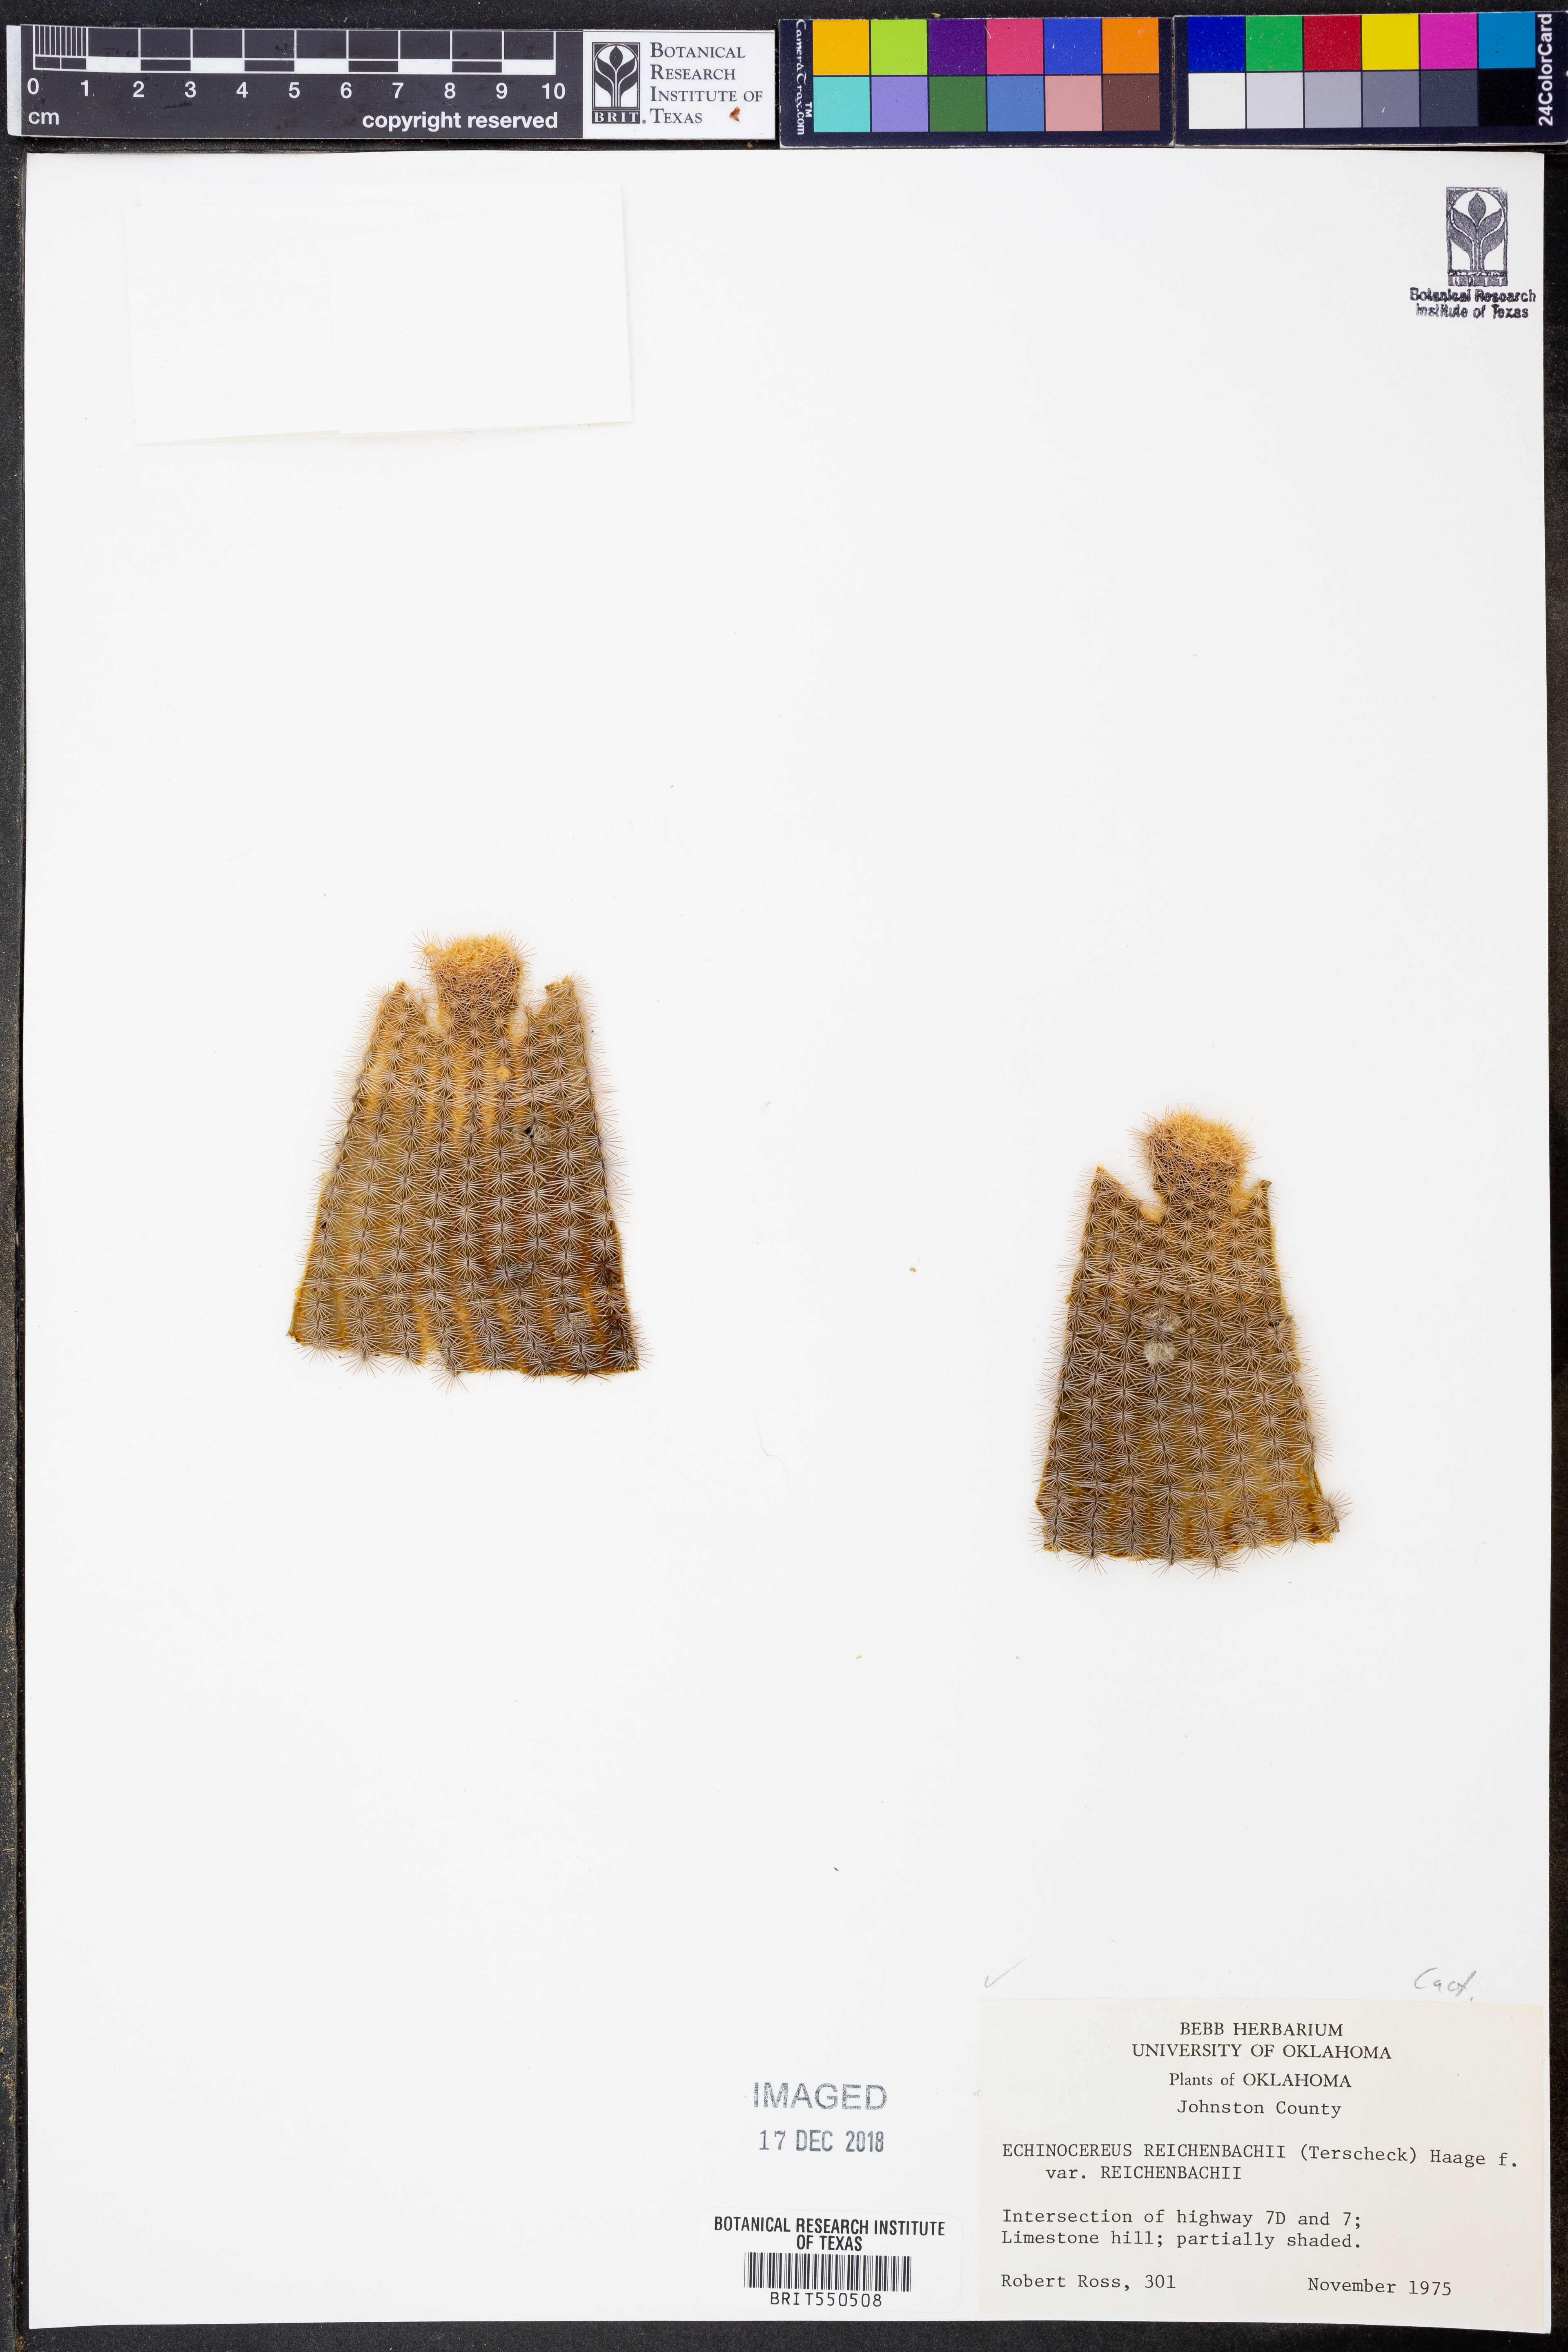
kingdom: Plantae
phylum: Tracheophyta
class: Magnoliopsida
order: Caryophyllales
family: Cactaceae
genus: Echinocereus
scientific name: Echinocereus reichenbachii
